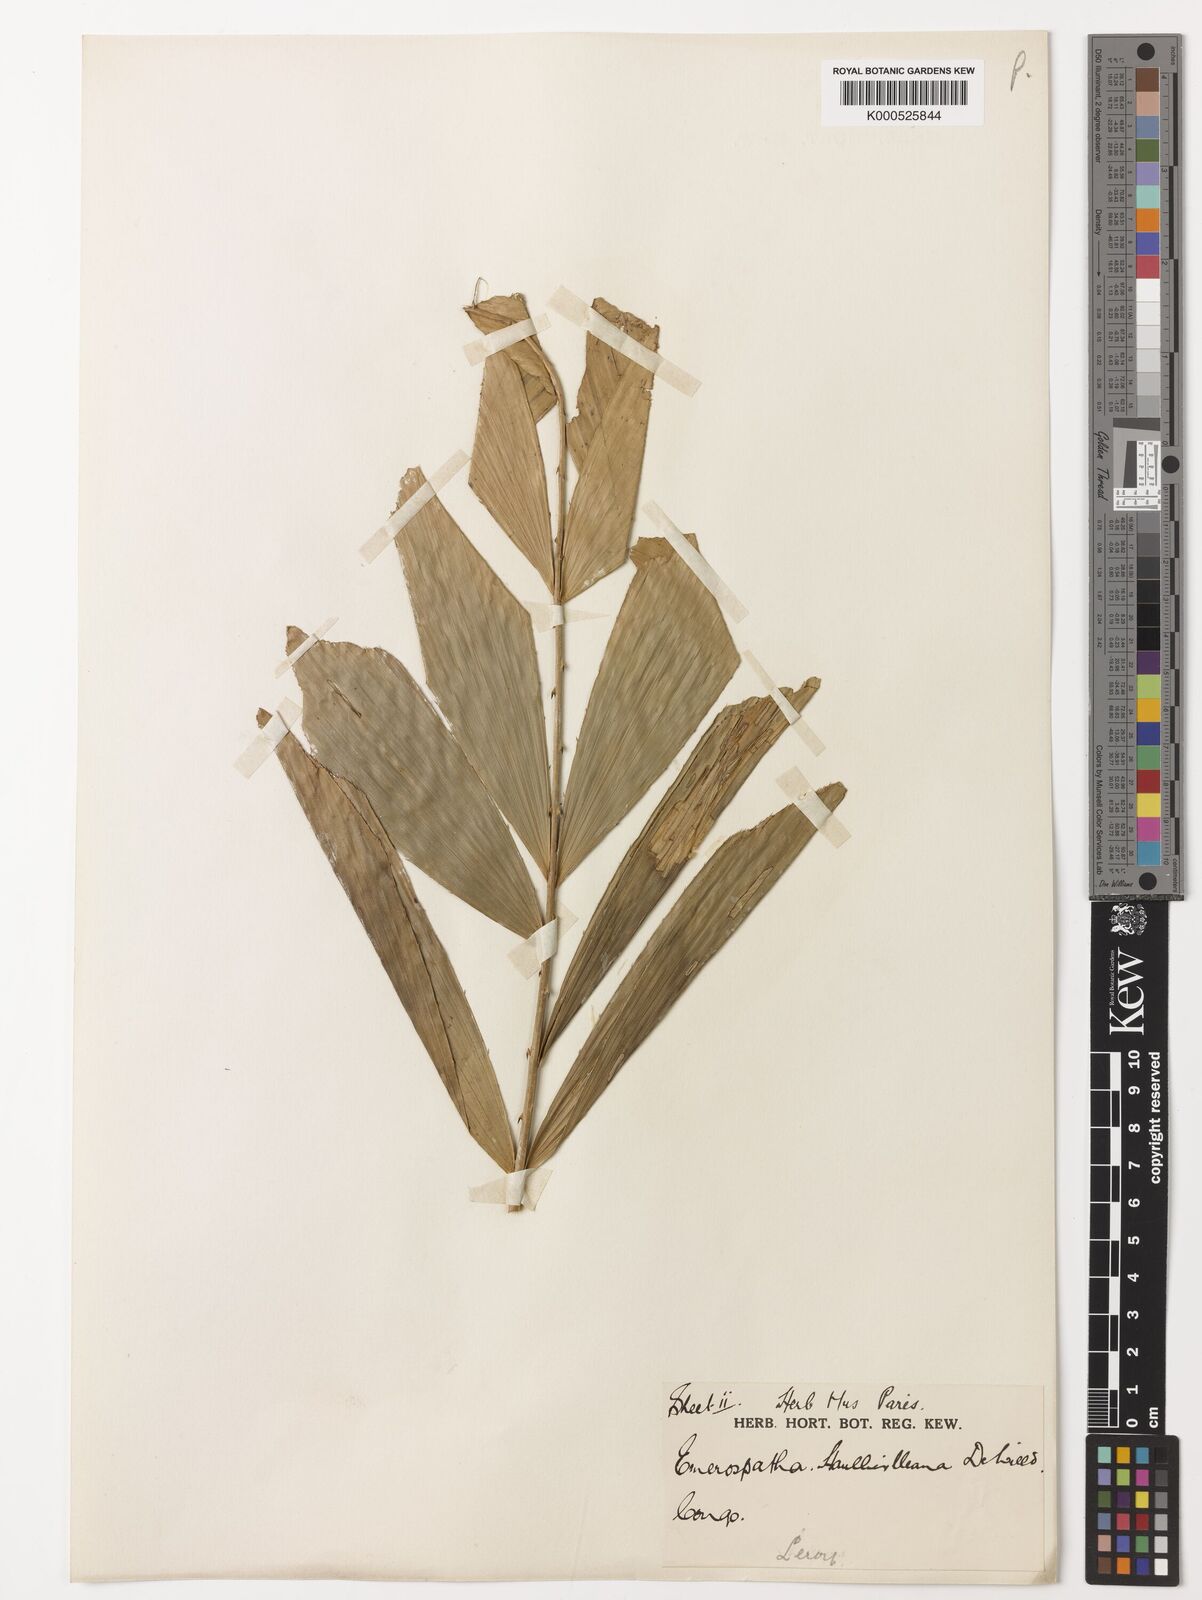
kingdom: Plantae
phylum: Tracheophyta
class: Liliopsida
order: Arecales
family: Arecaceae
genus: Eremospatha
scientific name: Eremospatha haullevilleana
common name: Rattan
